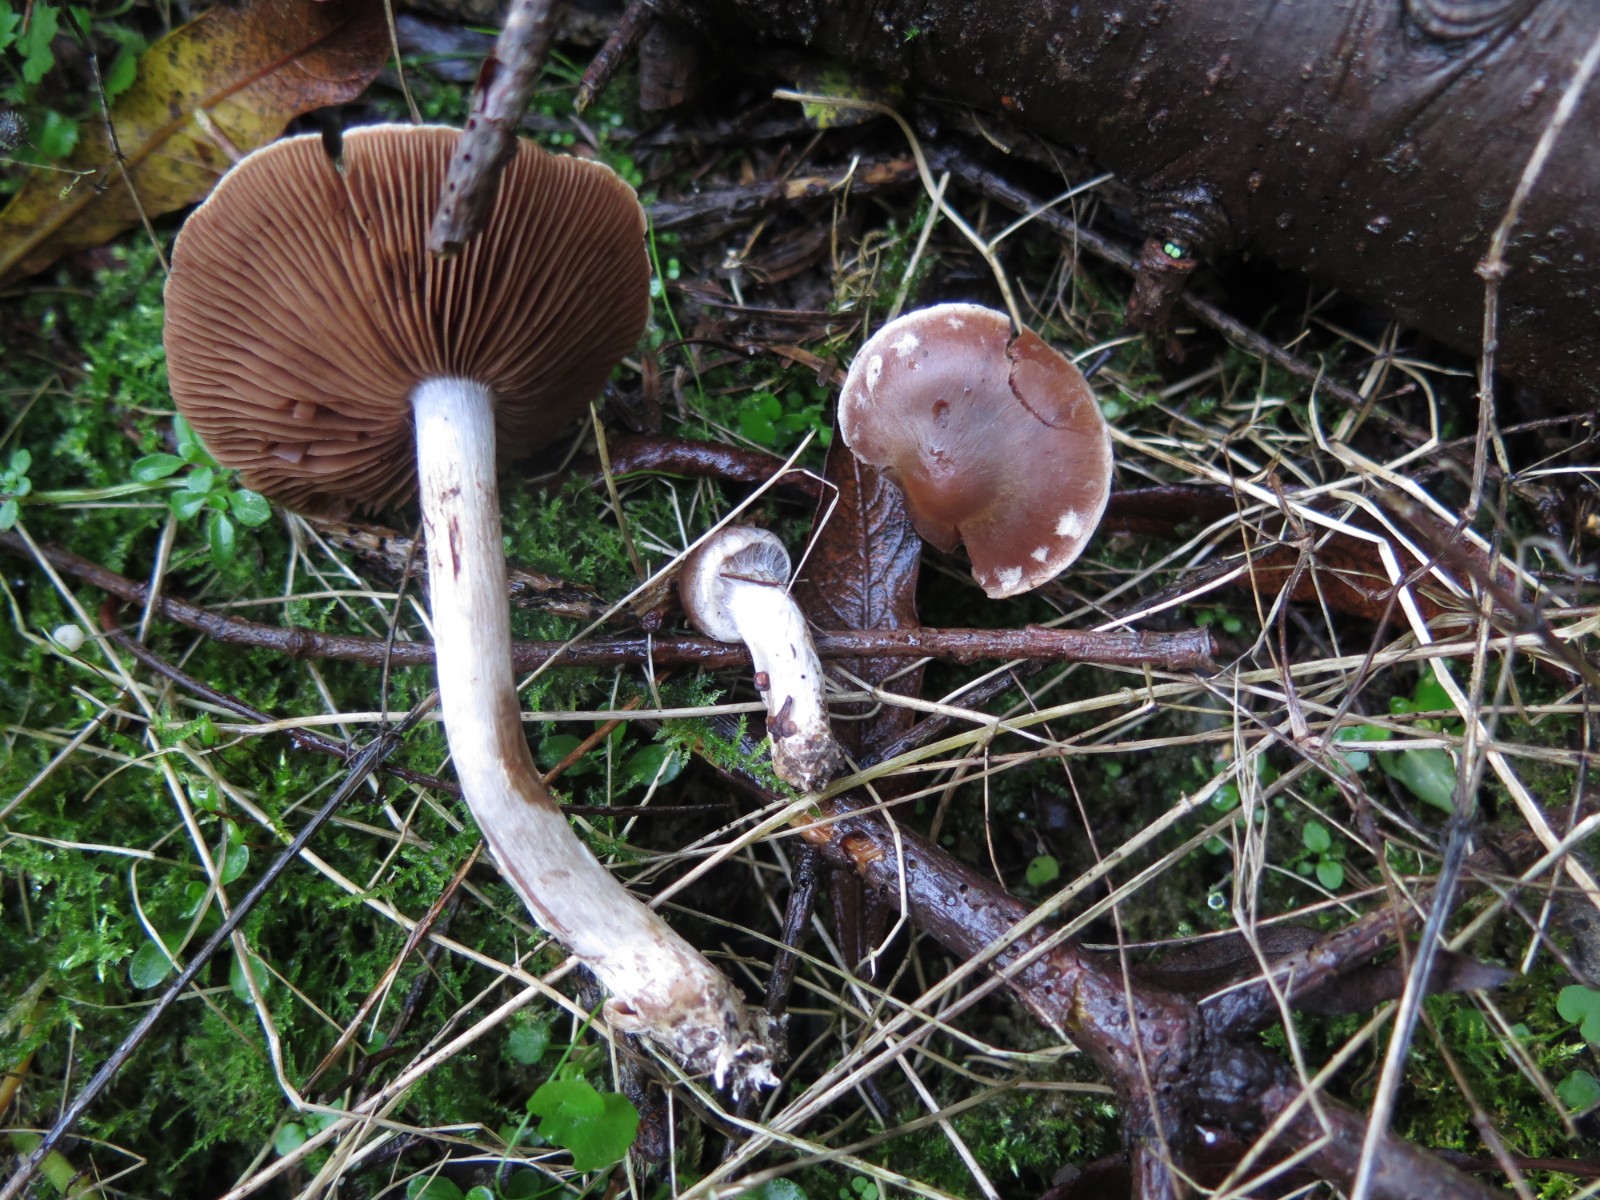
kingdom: Fungi
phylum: Basidiomycota
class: Agaricomycetes
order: Agaricales
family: Cortinariaceae
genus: Cortinarius
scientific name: Cortinarius
